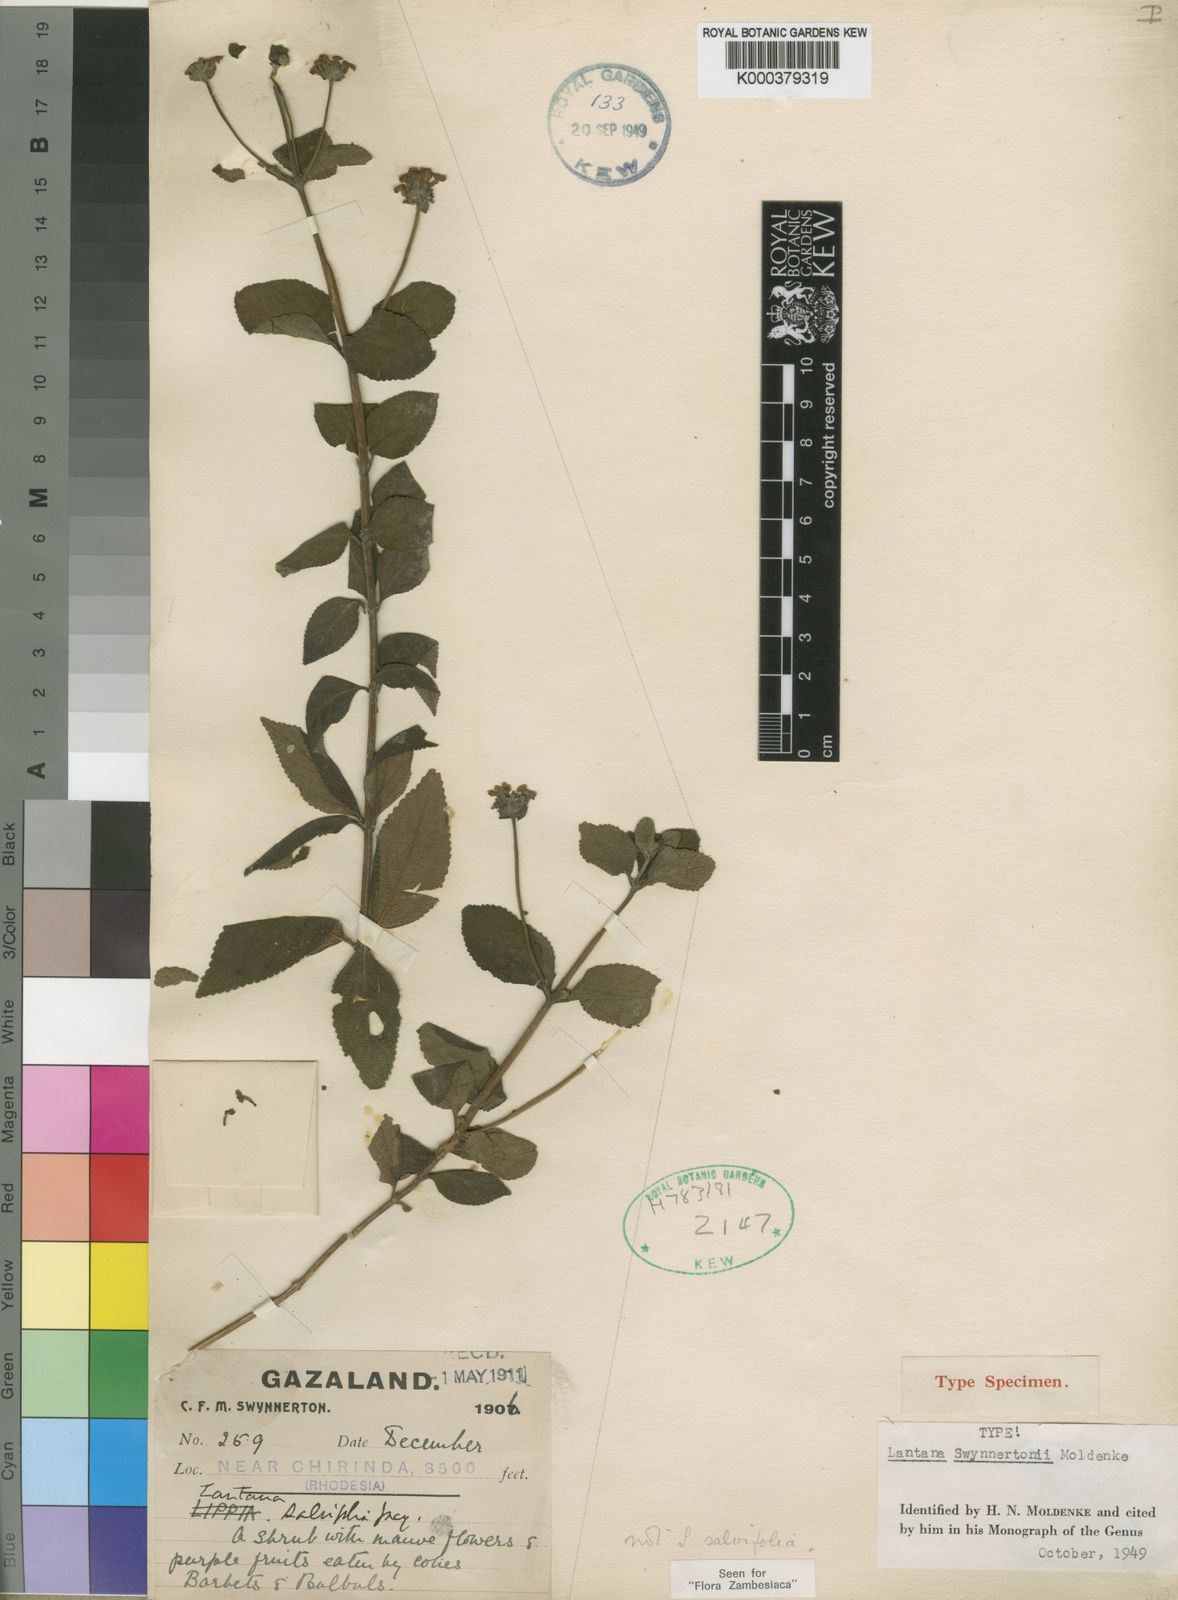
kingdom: Plantae
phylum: Tracheophyta
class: Magnoliopsida
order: Lamiales
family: Verbenaceae
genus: Lantana
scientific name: Lantana swynnertonii
